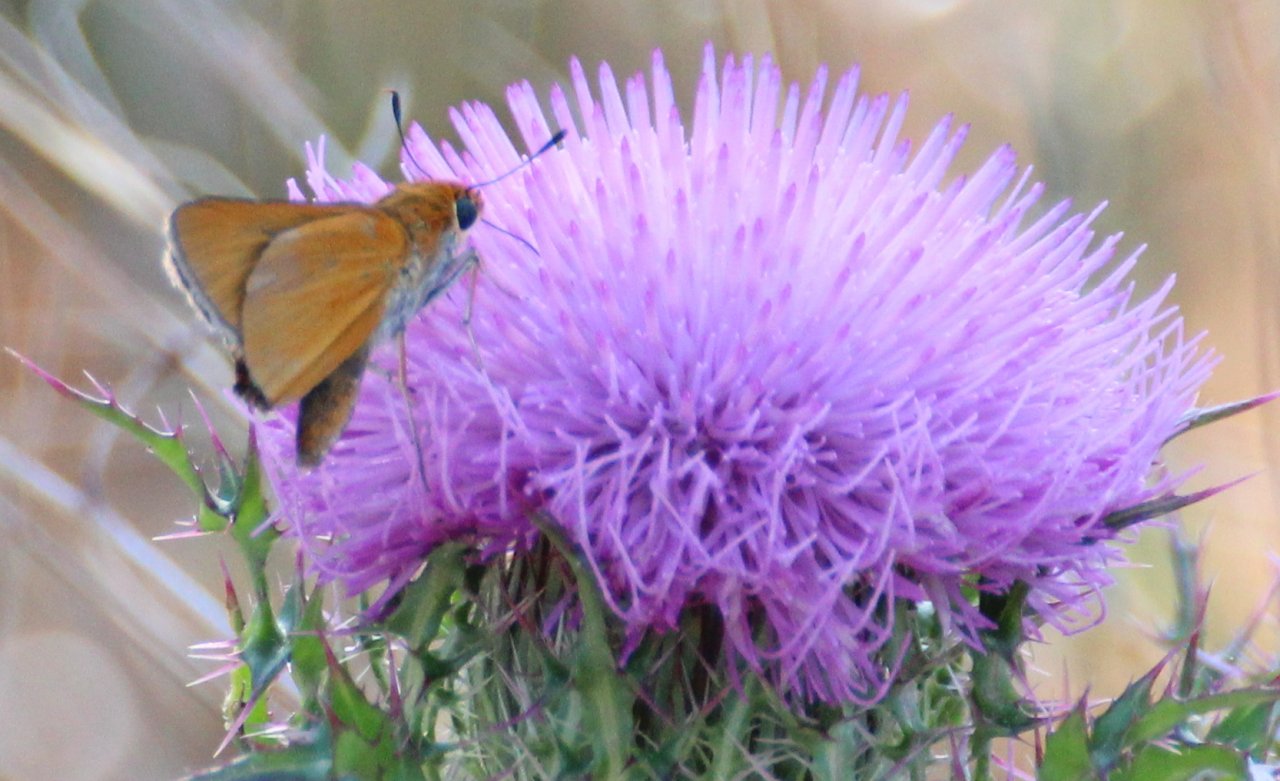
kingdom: Animalia
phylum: Arthropoda
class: Insecta
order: Lepidoptera
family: Hesperiidae
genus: Copaeodes
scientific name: Copaeodes minima
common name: Southern Skipperling
